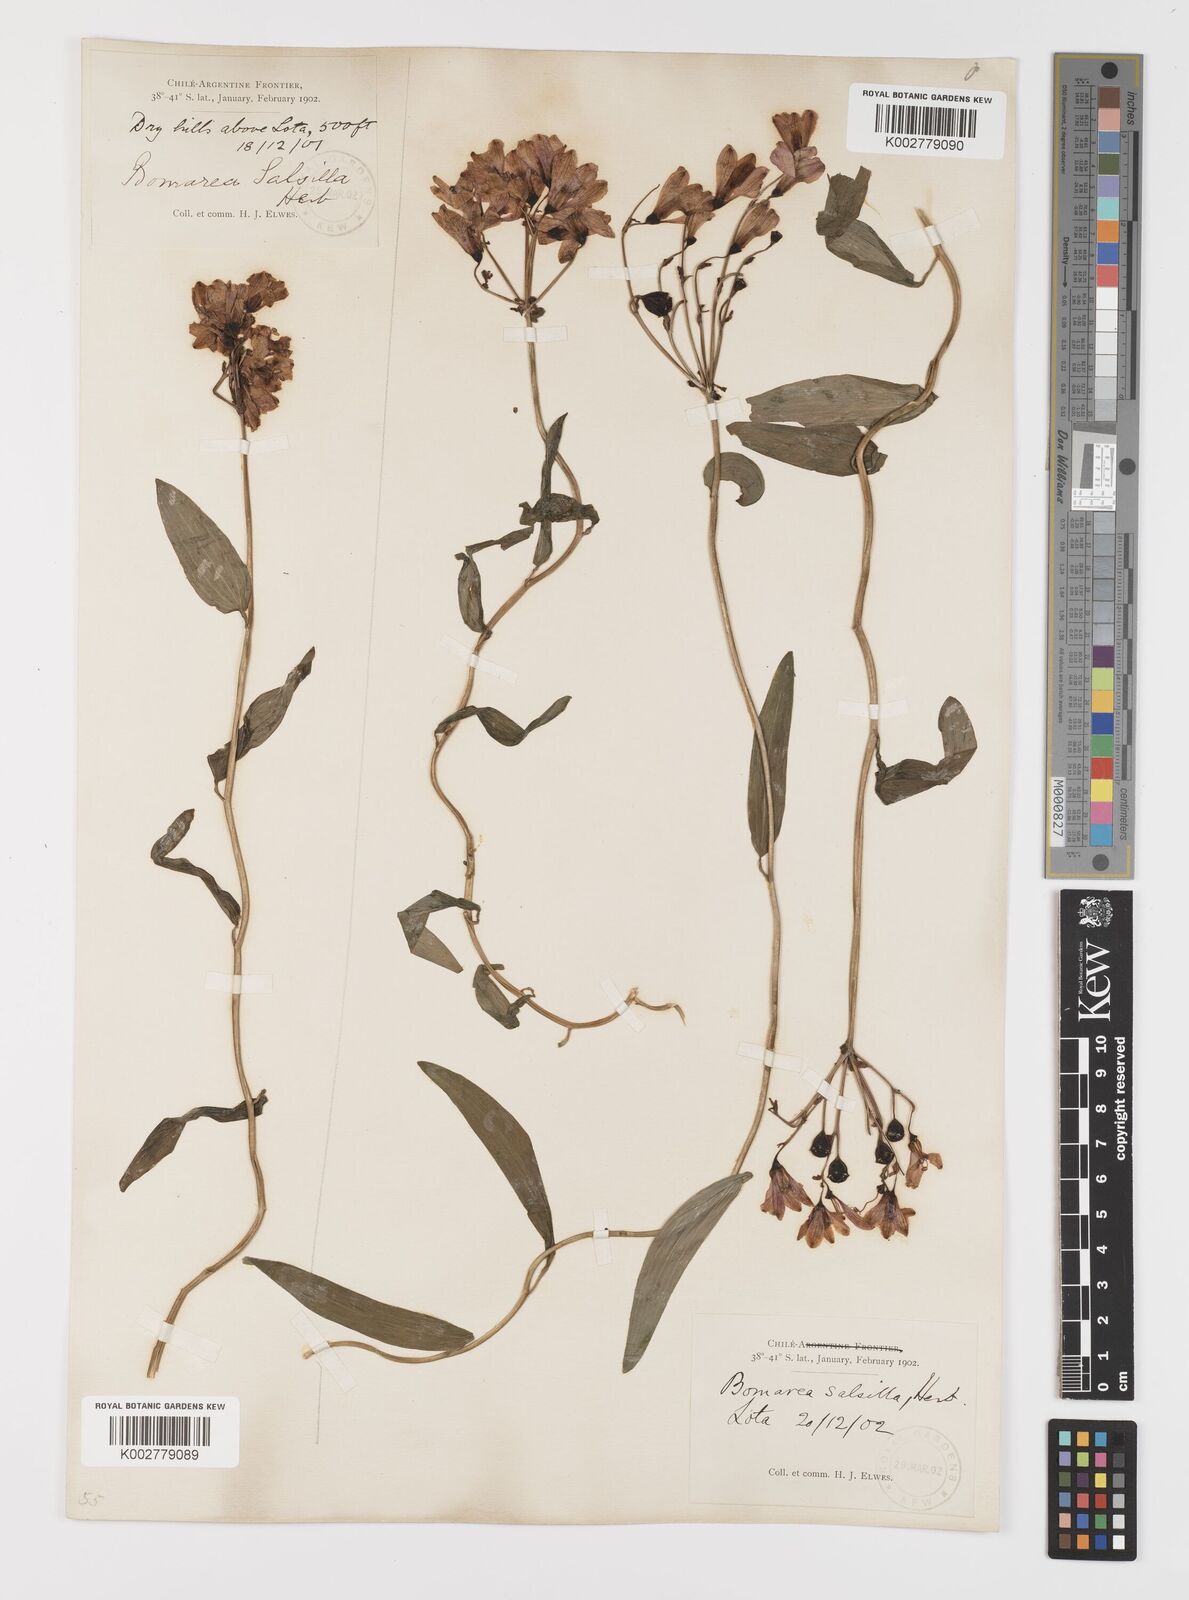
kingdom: Plantae
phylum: Tracheophyta
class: Liliopsida
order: Liliales
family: Alstroemeriaceae
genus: Bomarea
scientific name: Bomarea edulis
